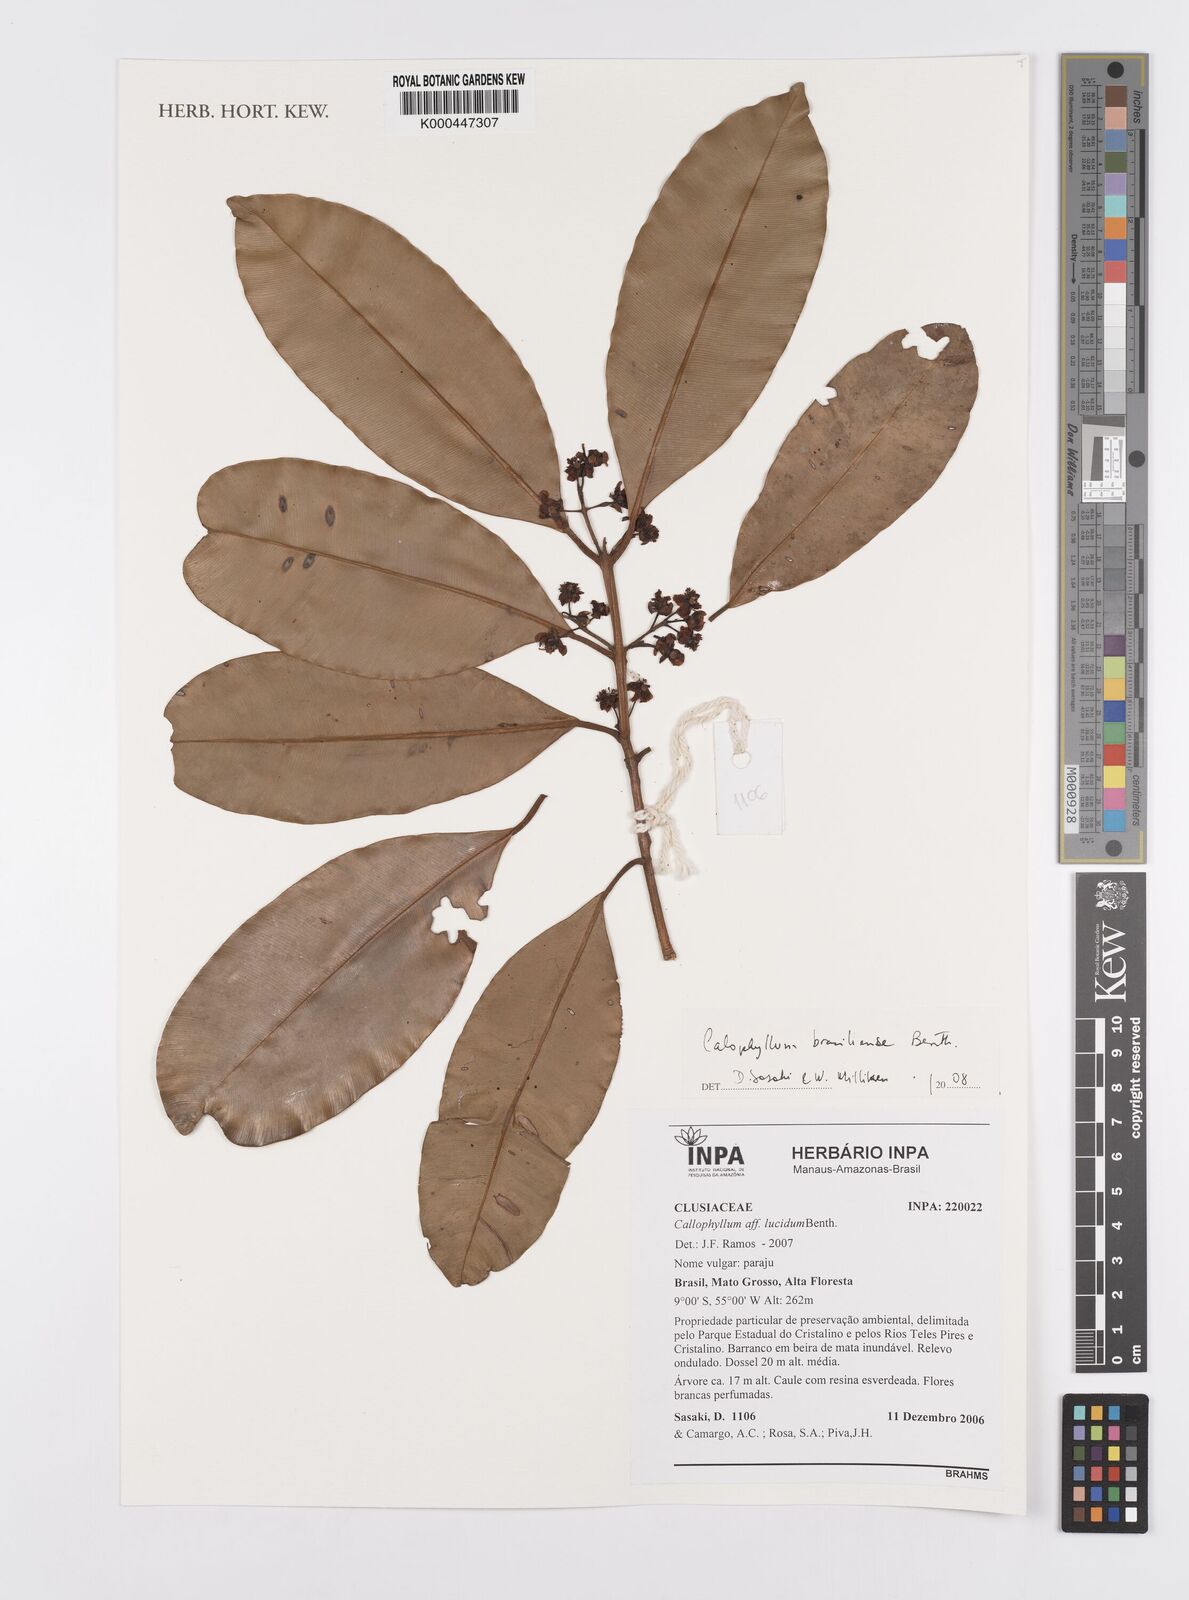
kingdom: Plantae
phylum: Tracheophyta
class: Magnoliopsida
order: Malpighiales
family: Calophyllaceae
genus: Calophyllum
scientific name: Calophyllum brasiliense
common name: Santa maria
